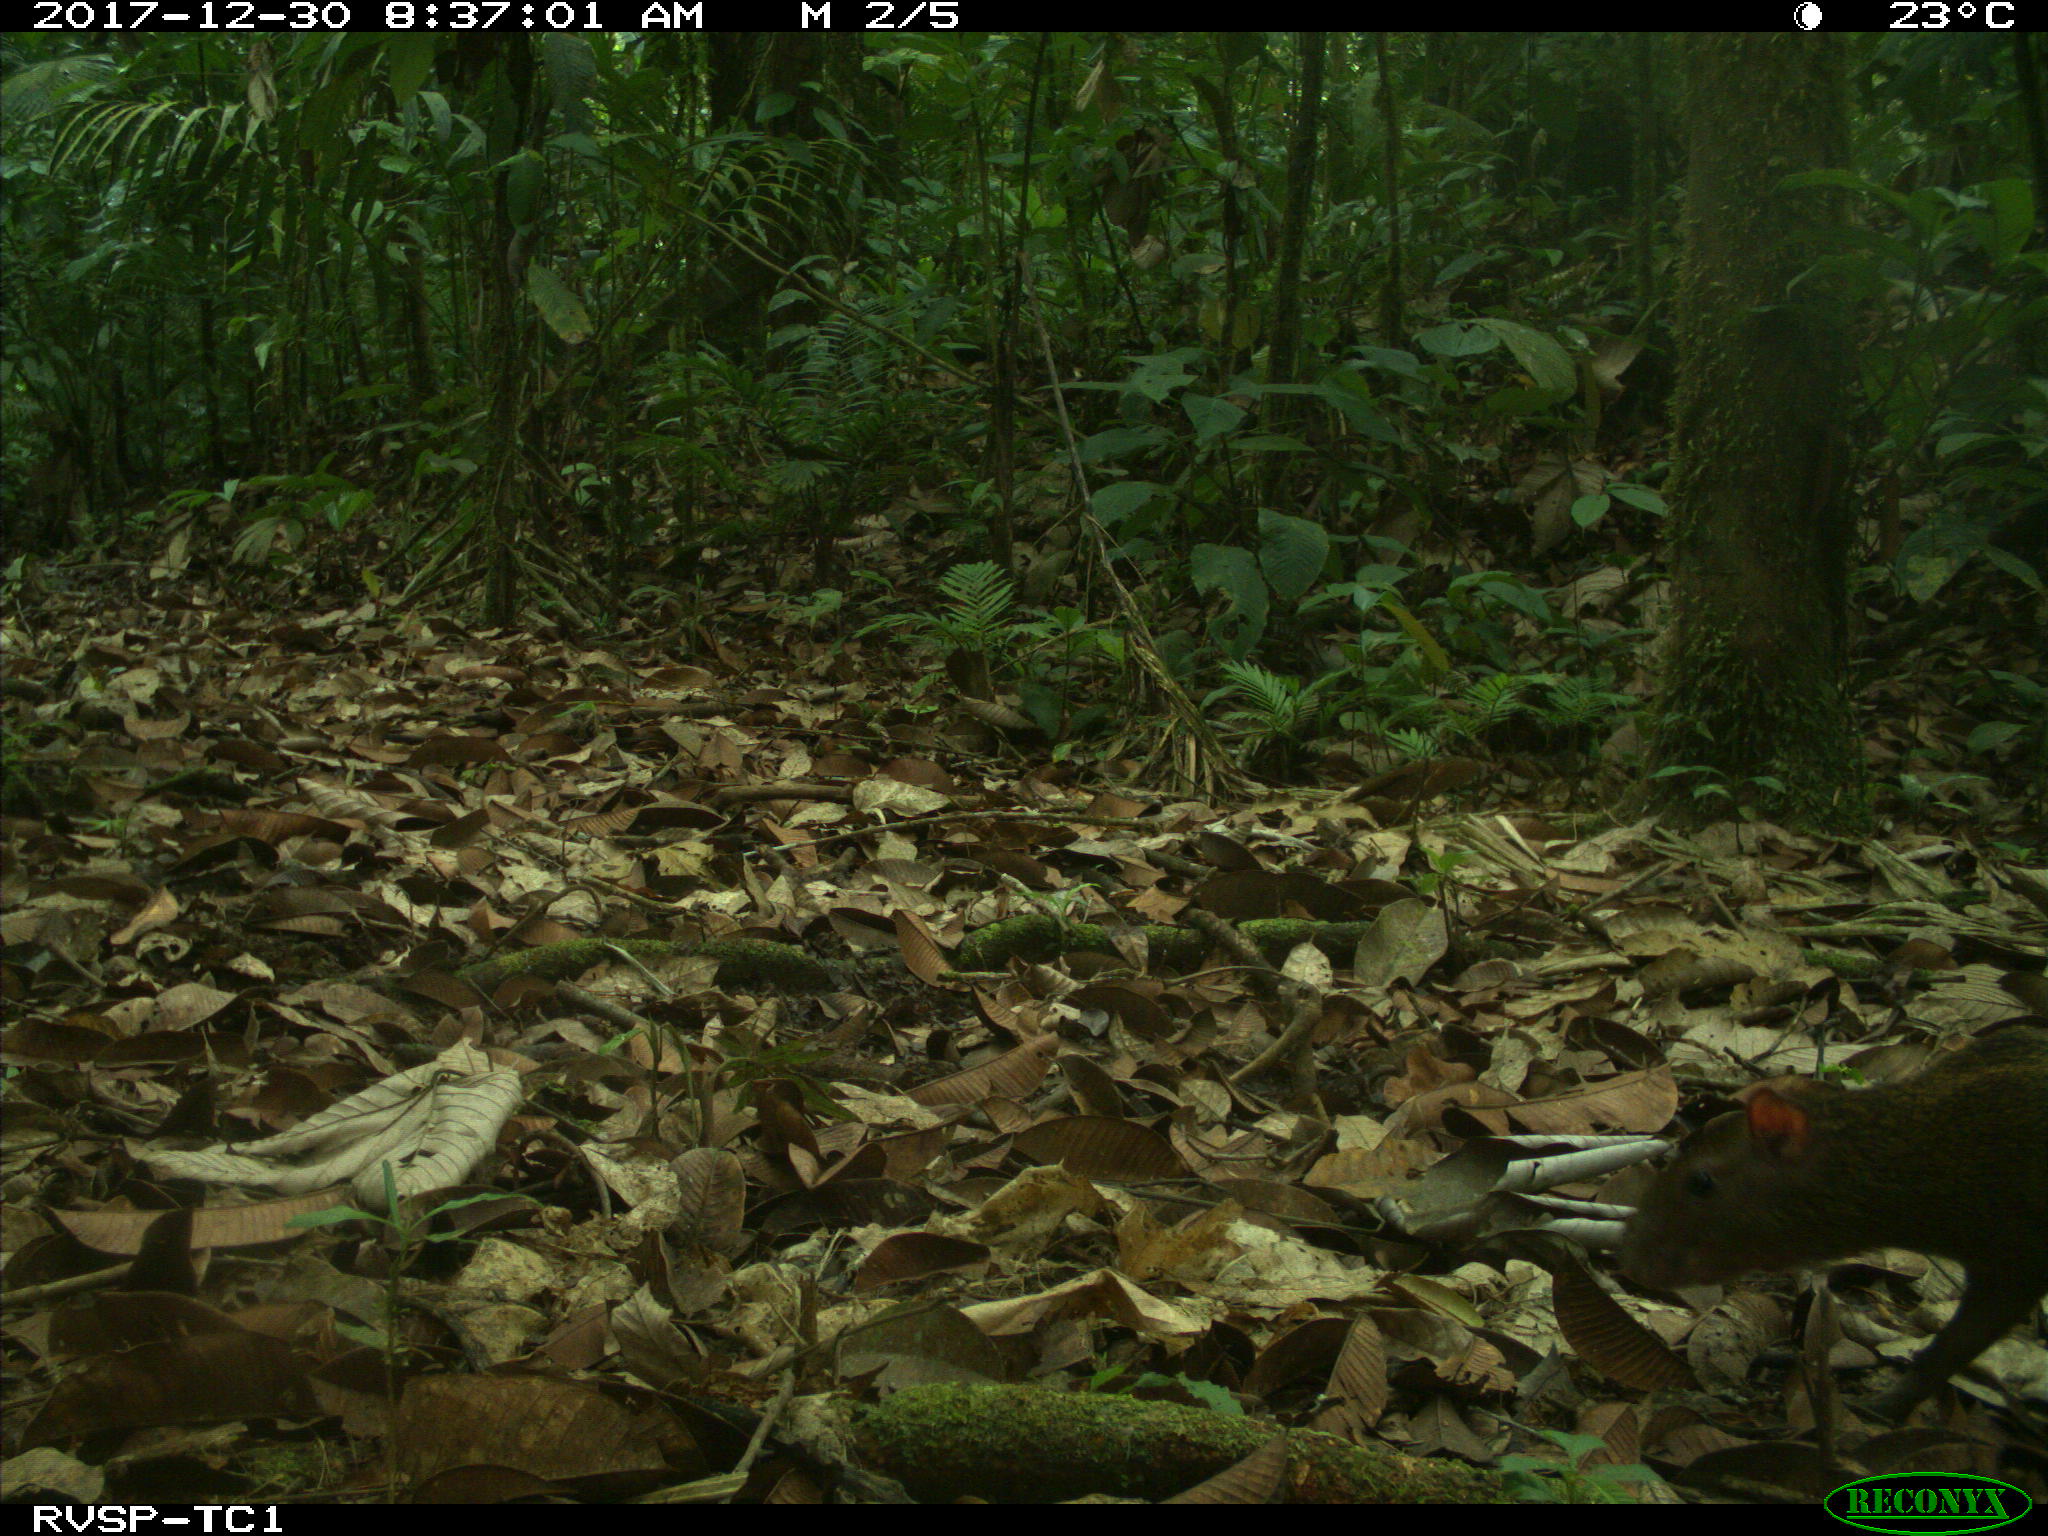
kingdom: Animalia
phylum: Chordata
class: Mammalia
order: Rodentia
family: Dasyproctidae
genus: Dasyprocta
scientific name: Dasyprocta punctata
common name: Central american agouti
